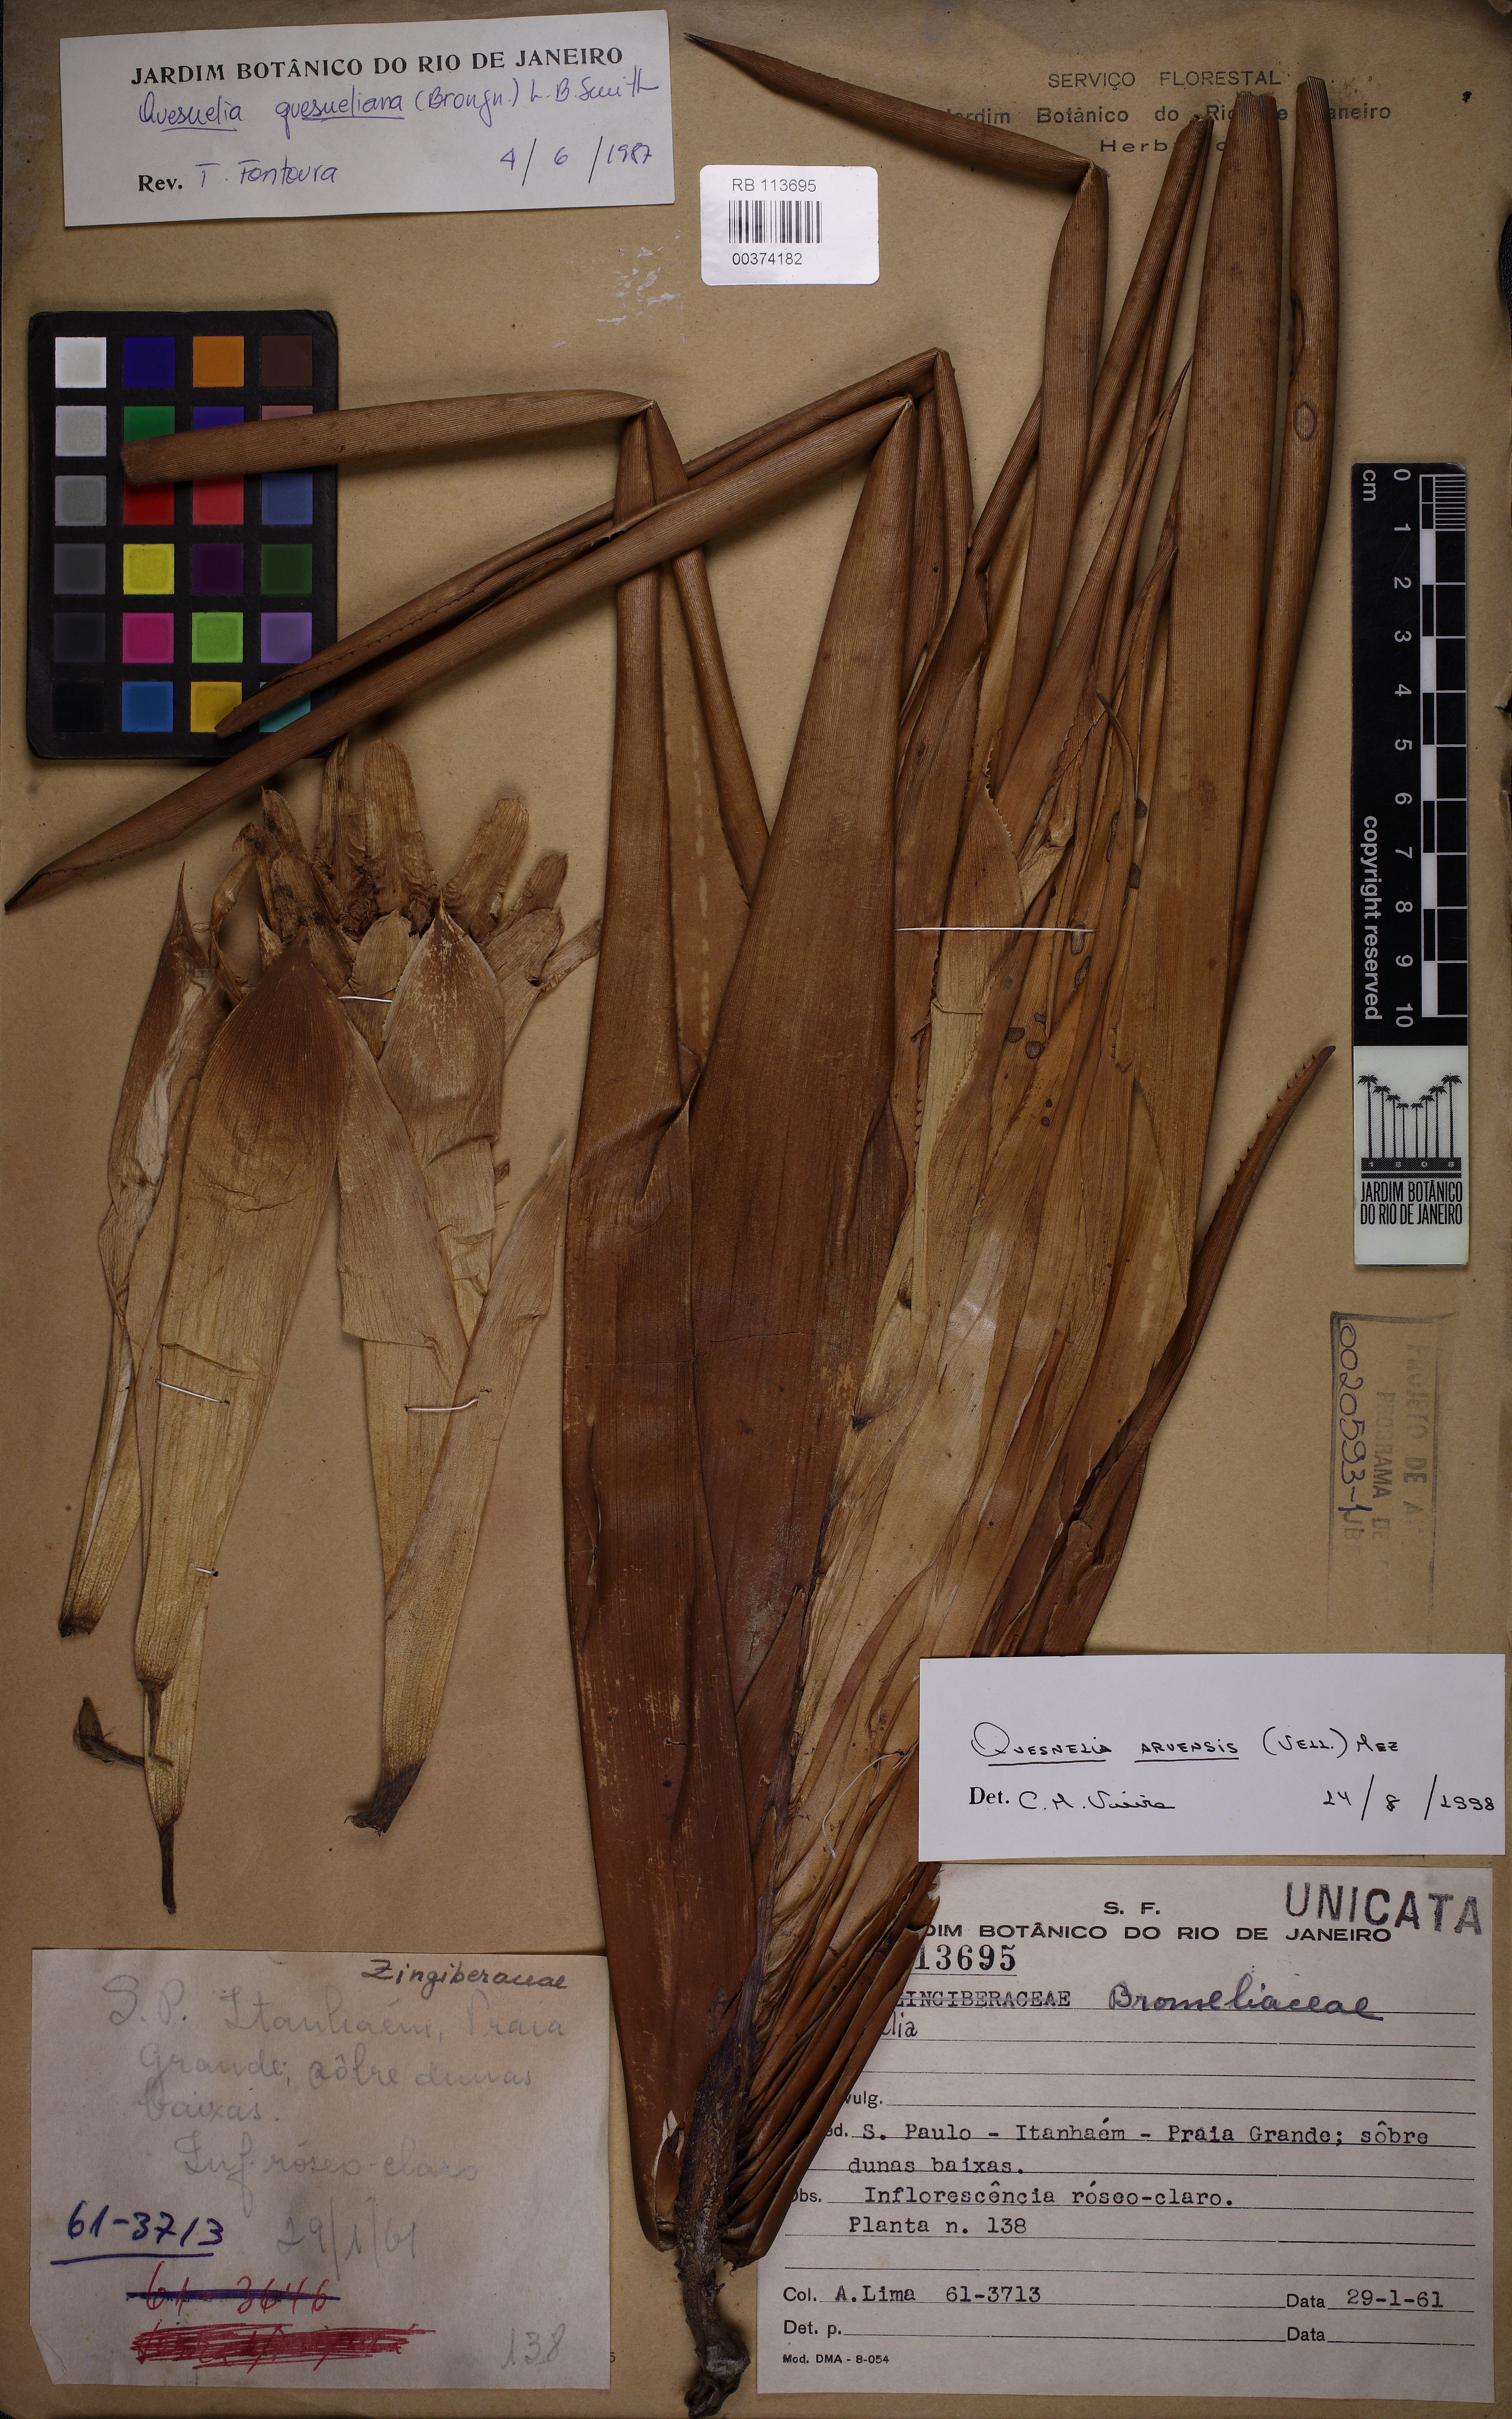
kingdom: Plantae
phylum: Tracheophyta
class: Liliopsida
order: Poales
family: Bromeliaceae
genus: Quesnelia
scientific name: Quesnelia arvensis
